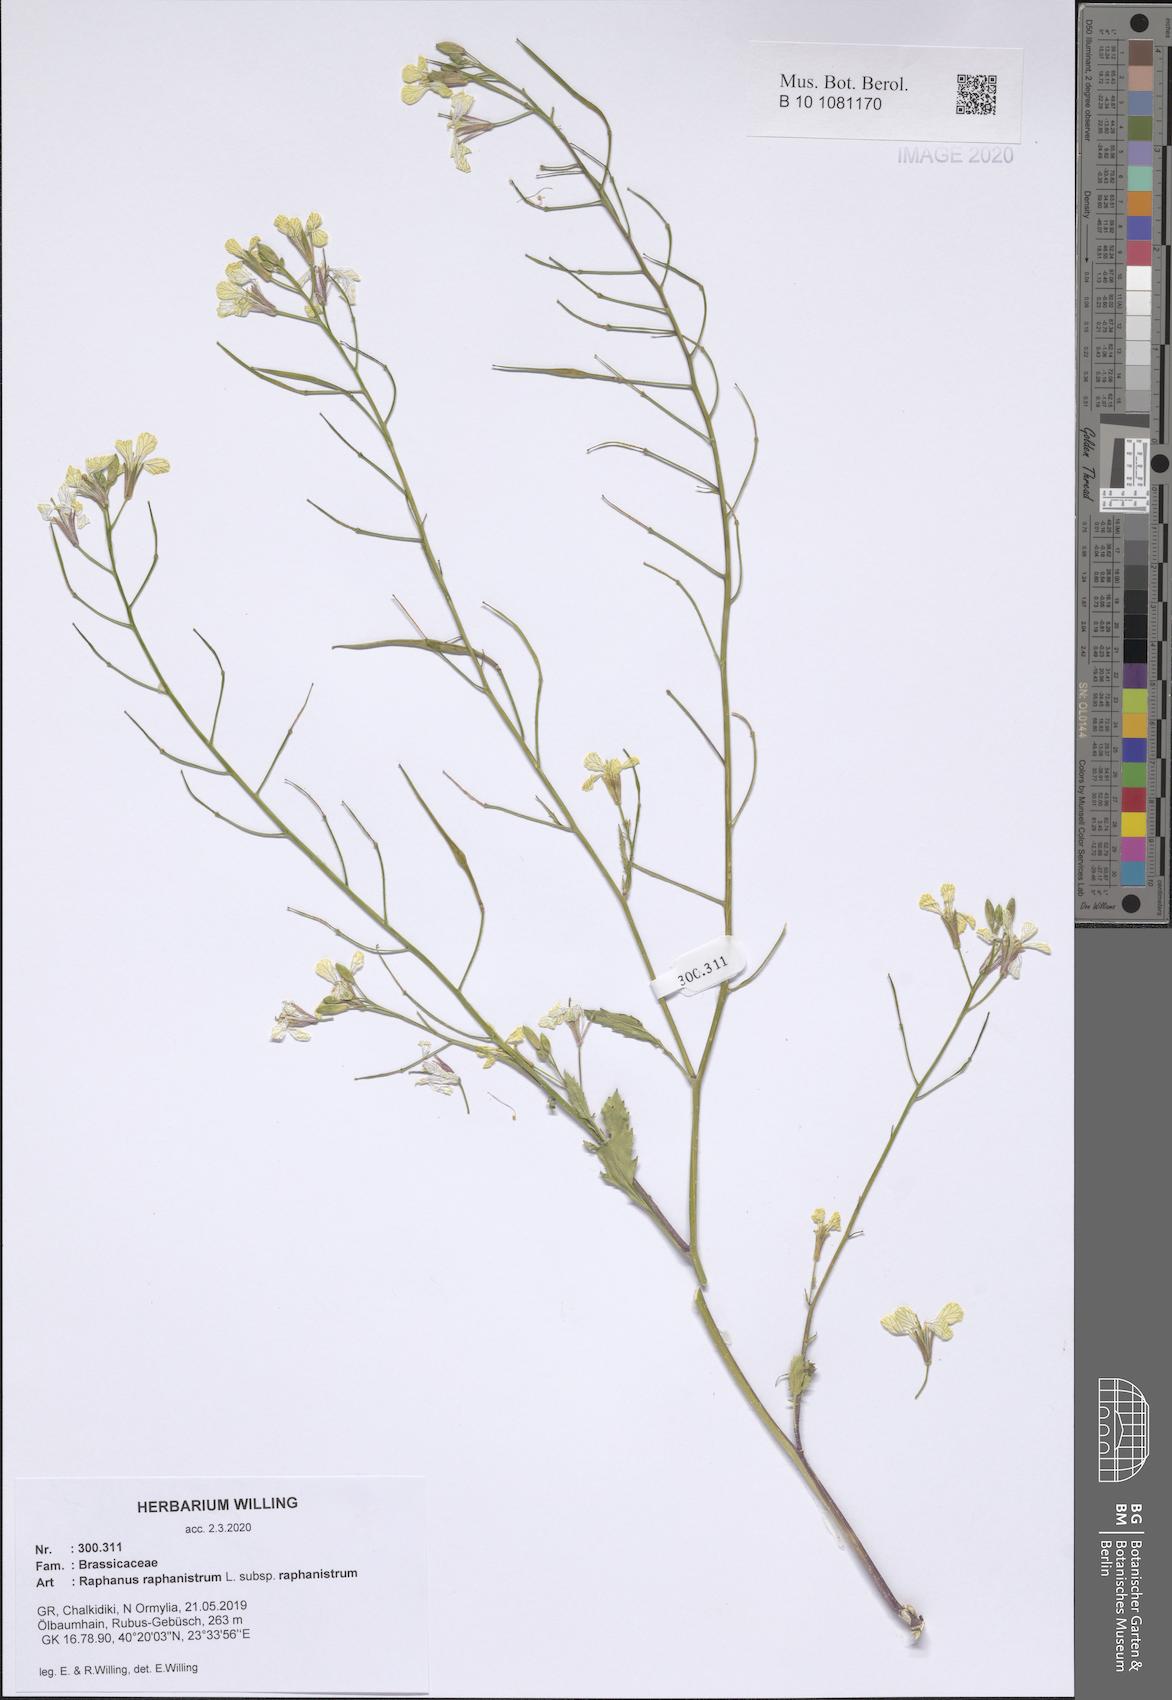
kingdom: Plantae
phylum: Tracheophyta
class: Magnoliopsida
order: Brassicales
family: Brassicaceae
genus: Raphanus
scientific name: Raphanus raphanistrum
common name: Wild radish
